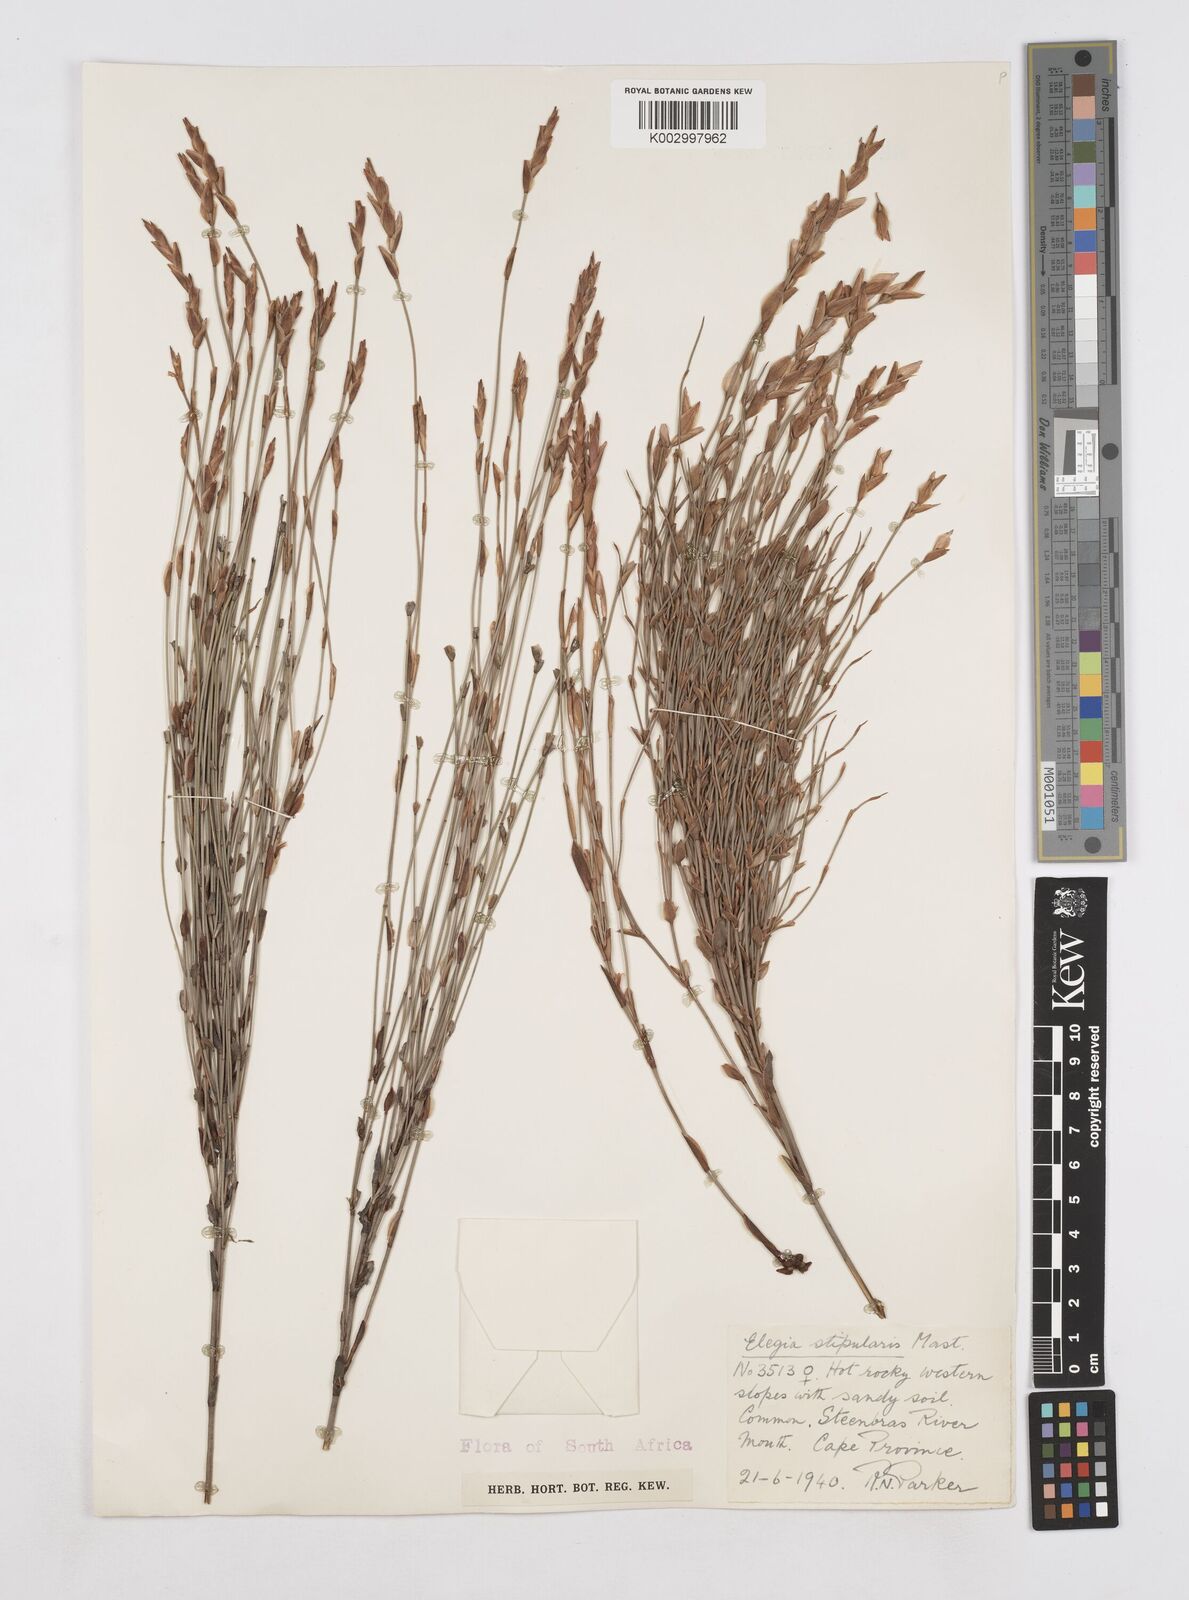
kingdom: Plantae
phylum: Tracheophyta
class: Liliopsida
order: Poales
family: Restionaceae
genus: Elegia
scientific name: Elegia stipularis
